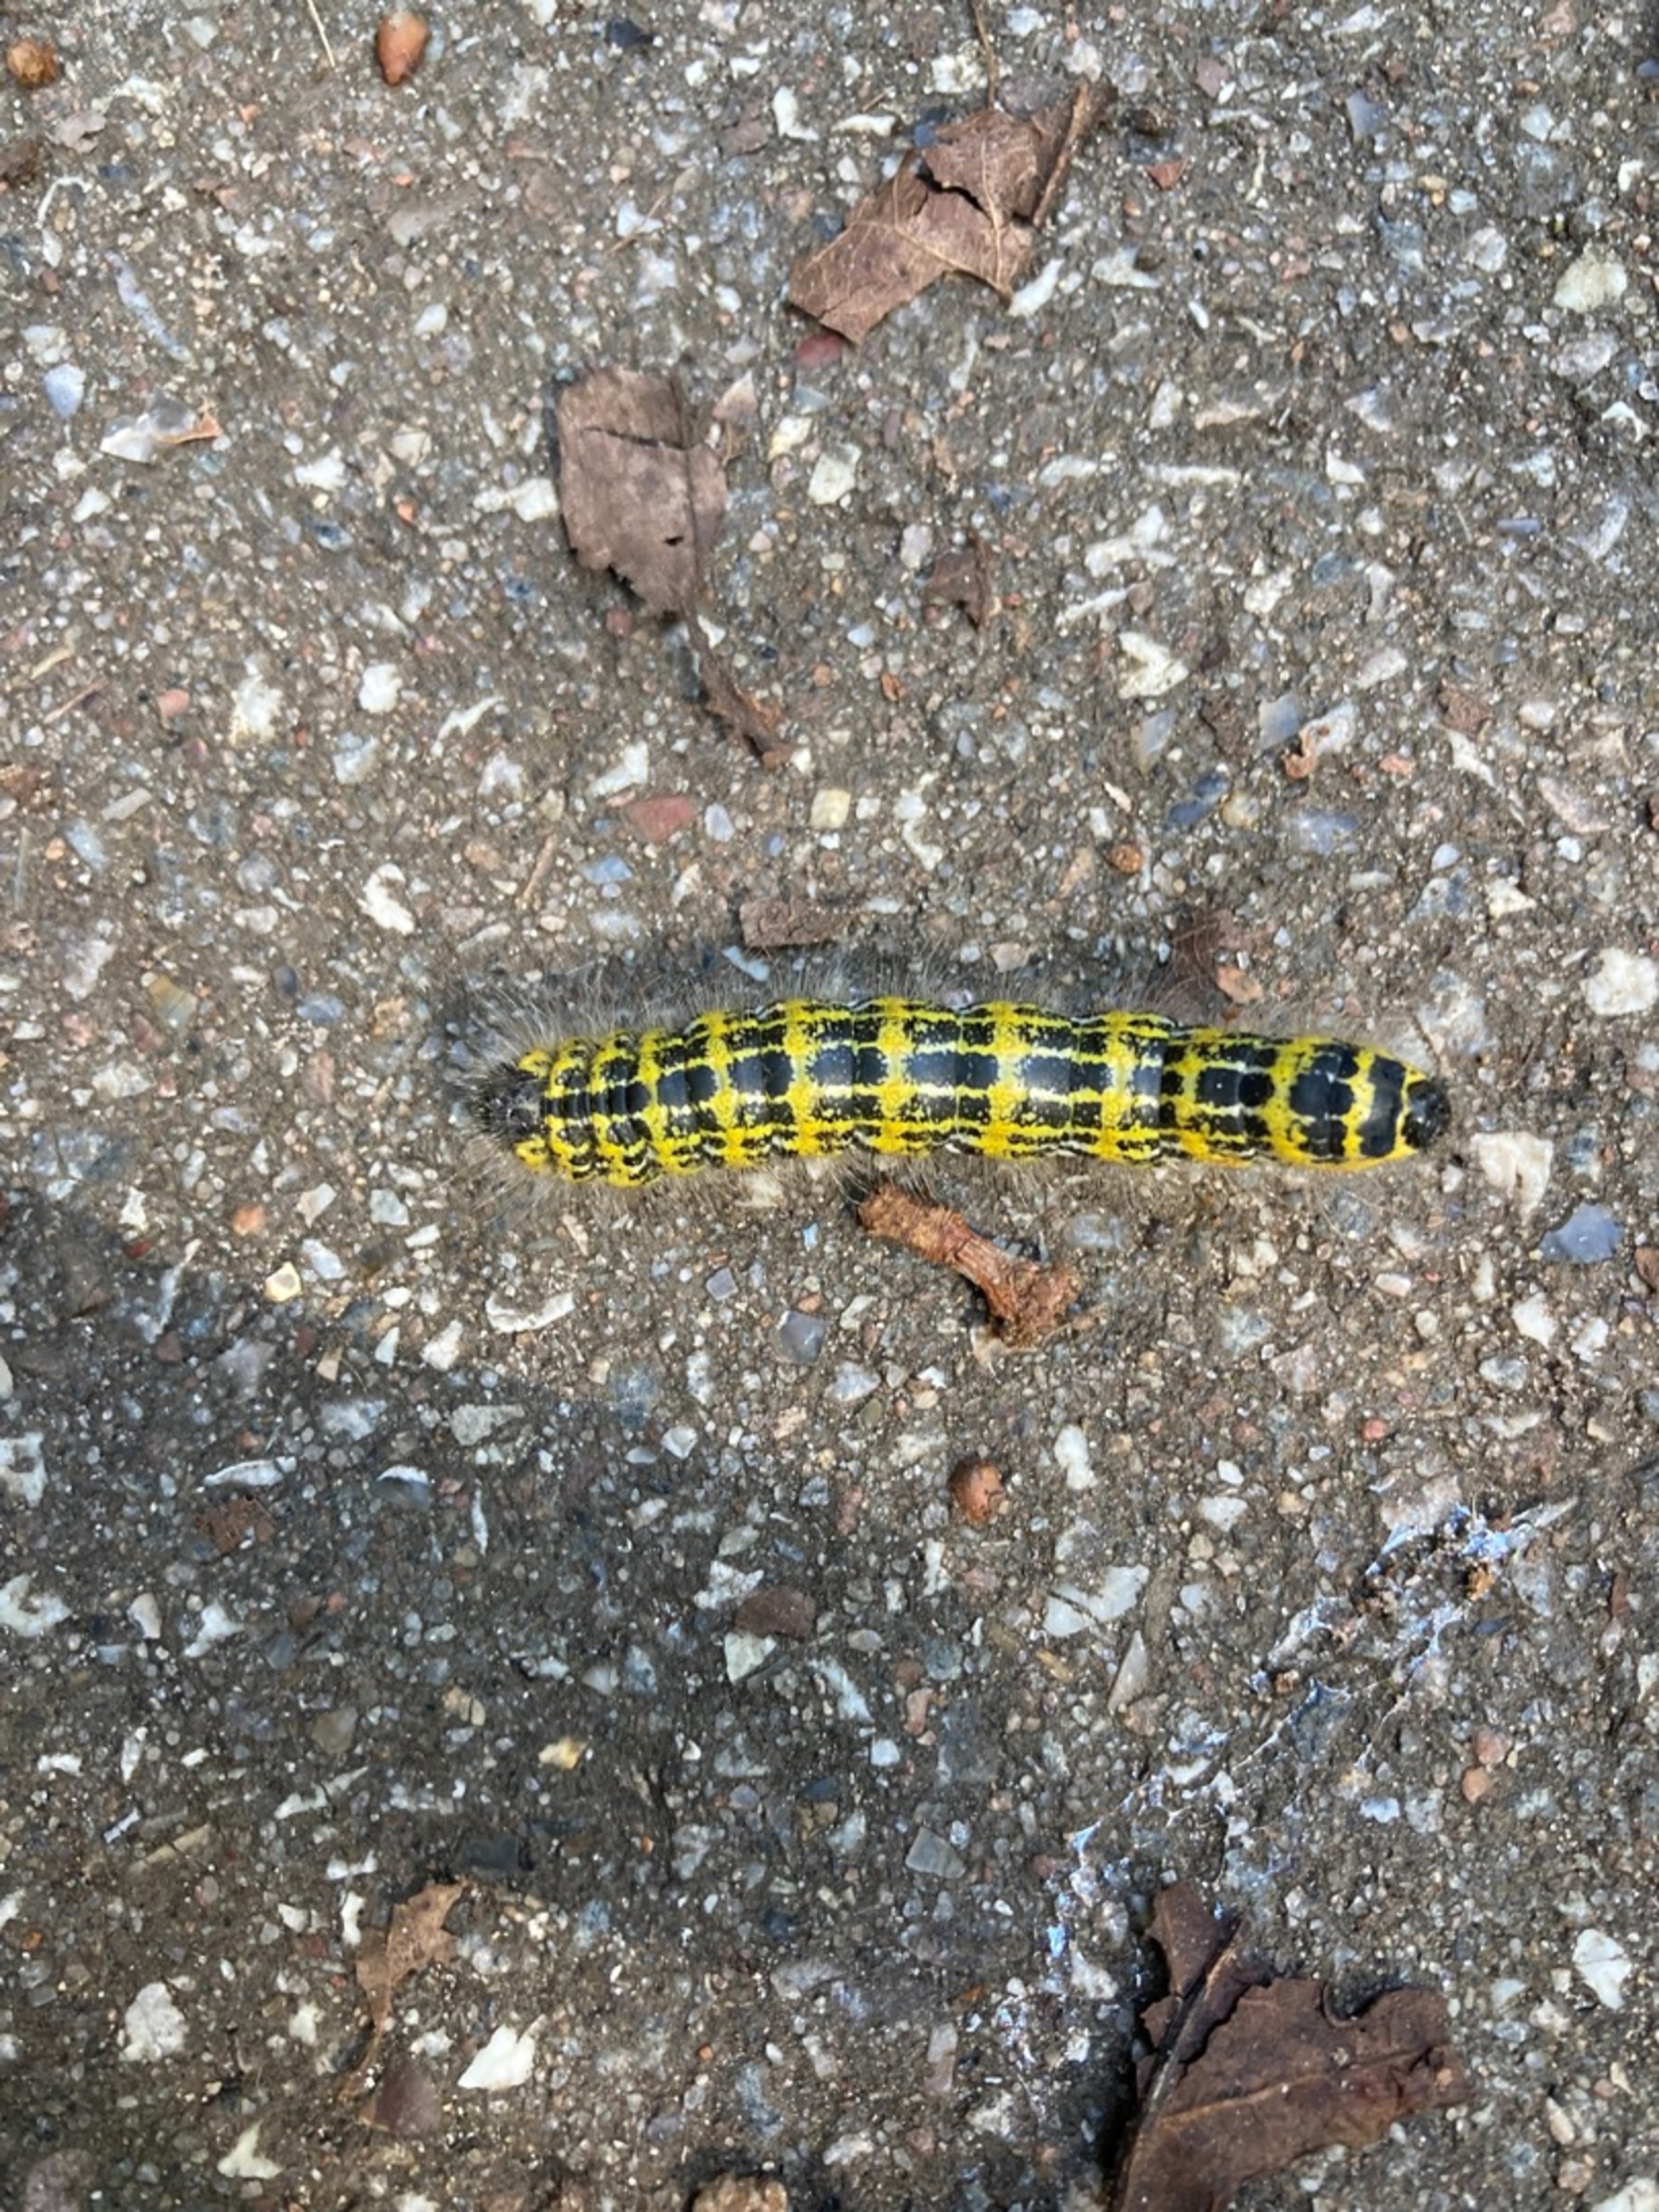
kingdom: Animalia
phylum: Arthropoda
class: Insecta
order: Lepidoptera
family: Notodontidae
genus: Phalera
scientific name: Phalera bucephala
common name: Måneplet
